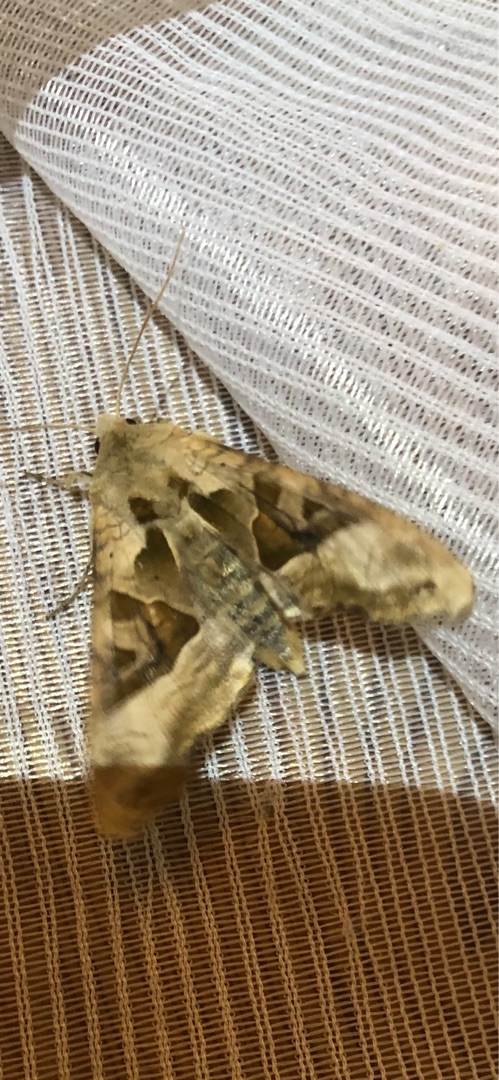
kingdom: Animalia
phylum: Arthropoda
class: Insecta
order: Lepidoptera
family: Noctuidae
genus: Phlogophora
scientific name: Phlogophora meticulosa
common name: Agatugle
